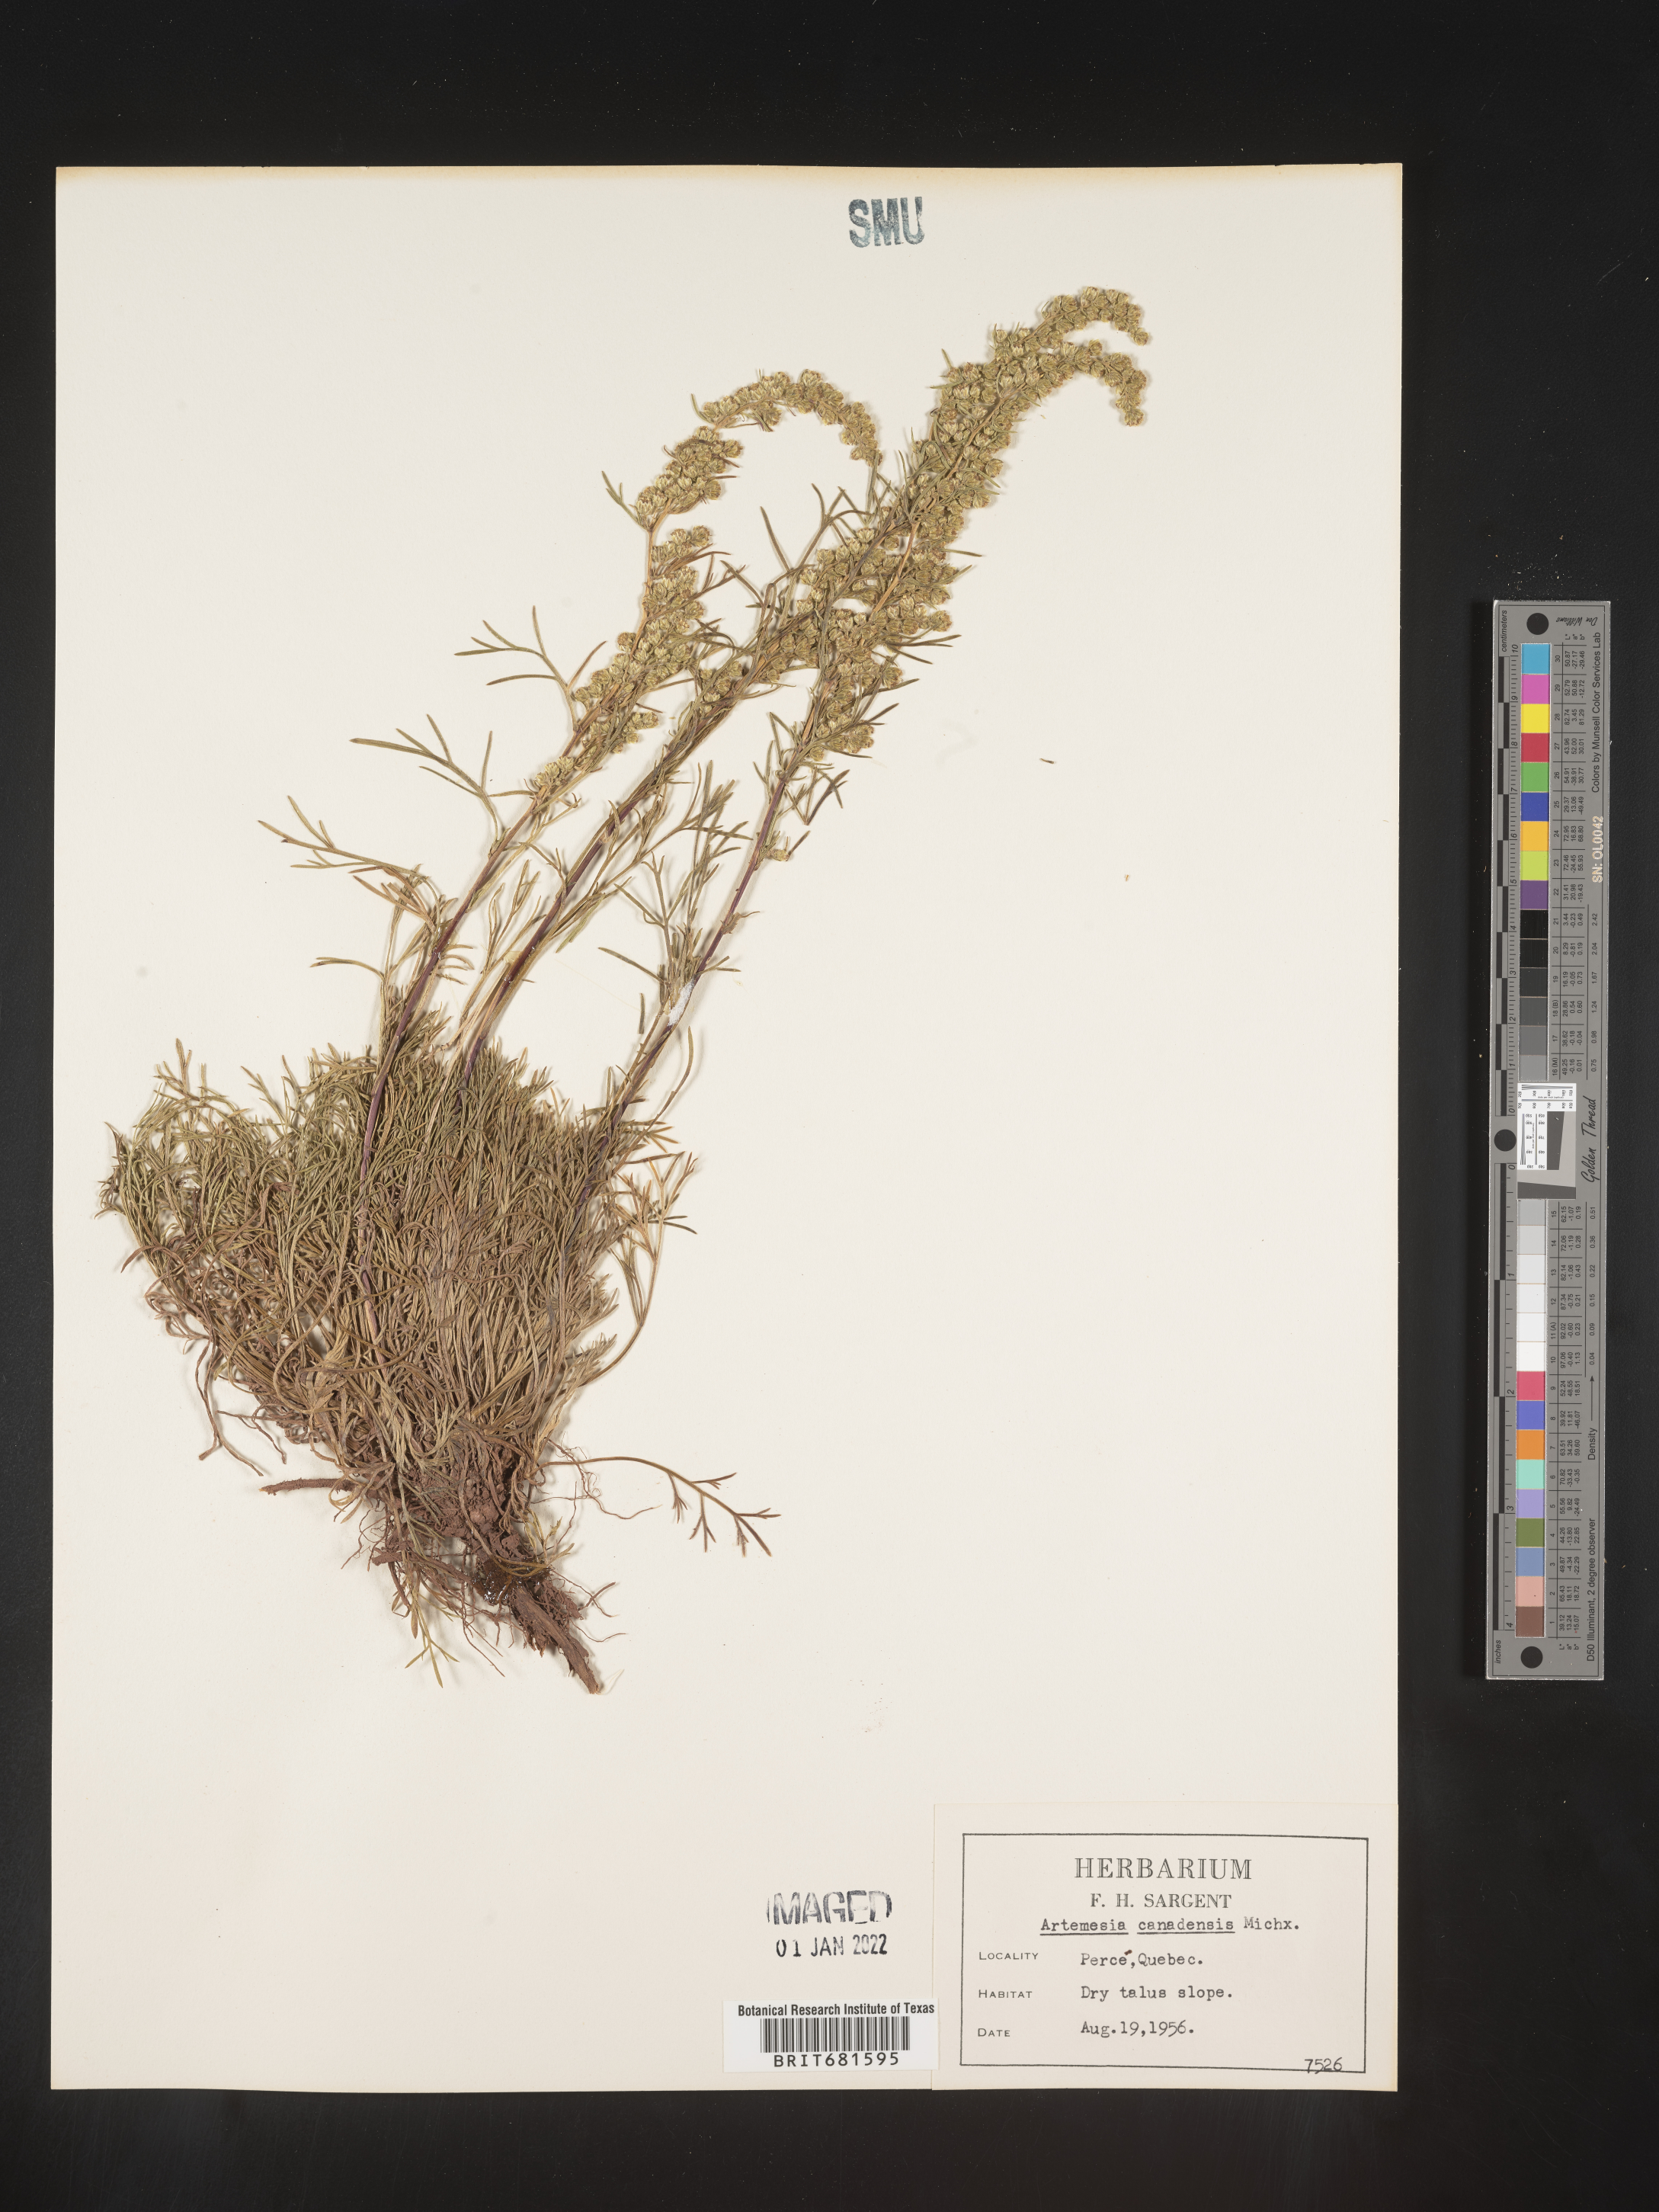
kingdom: Plantae
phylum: Tracheophyta
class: Magnoliopsida
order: Asterales
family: Asteraceae
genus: Artemisia
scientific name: Artemisia
